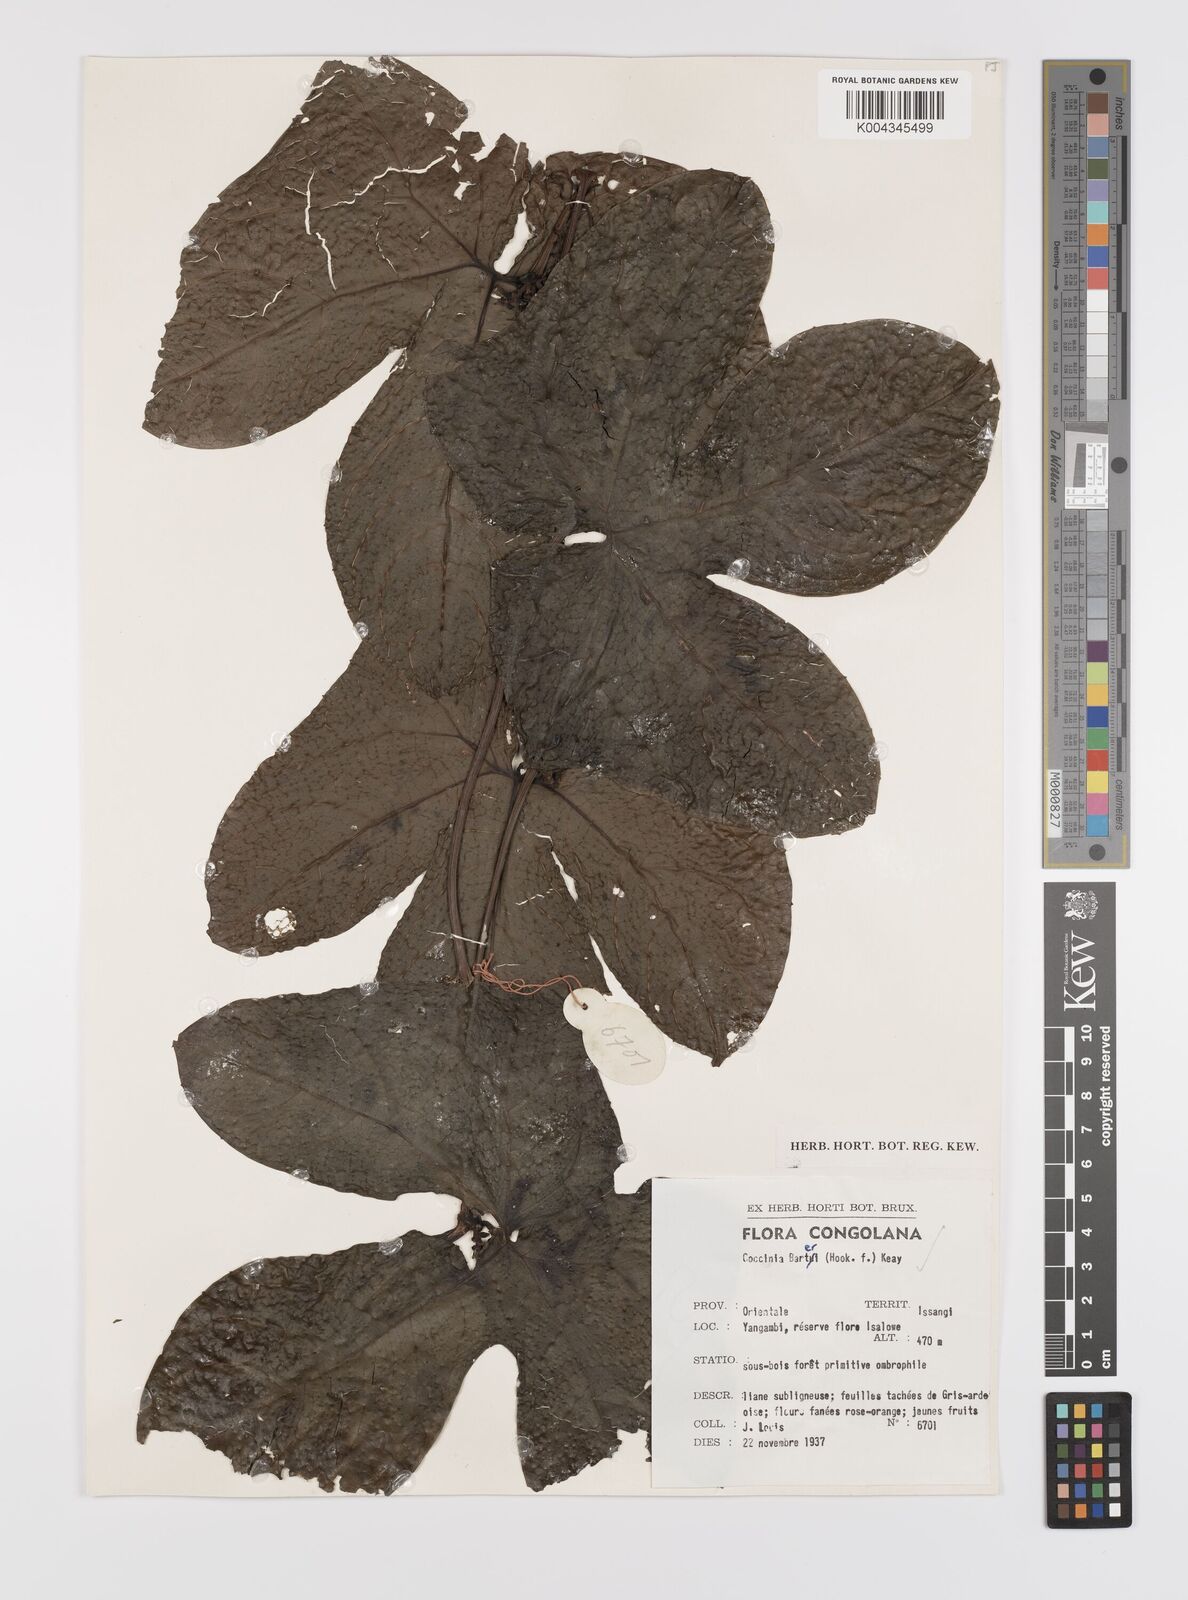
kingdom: Plantae
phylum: Tracheophyta
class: Magnoliopsida
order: Cucurbitales
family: Cucurbitaceae
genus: Coccinia
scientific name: Coccinia barteri
